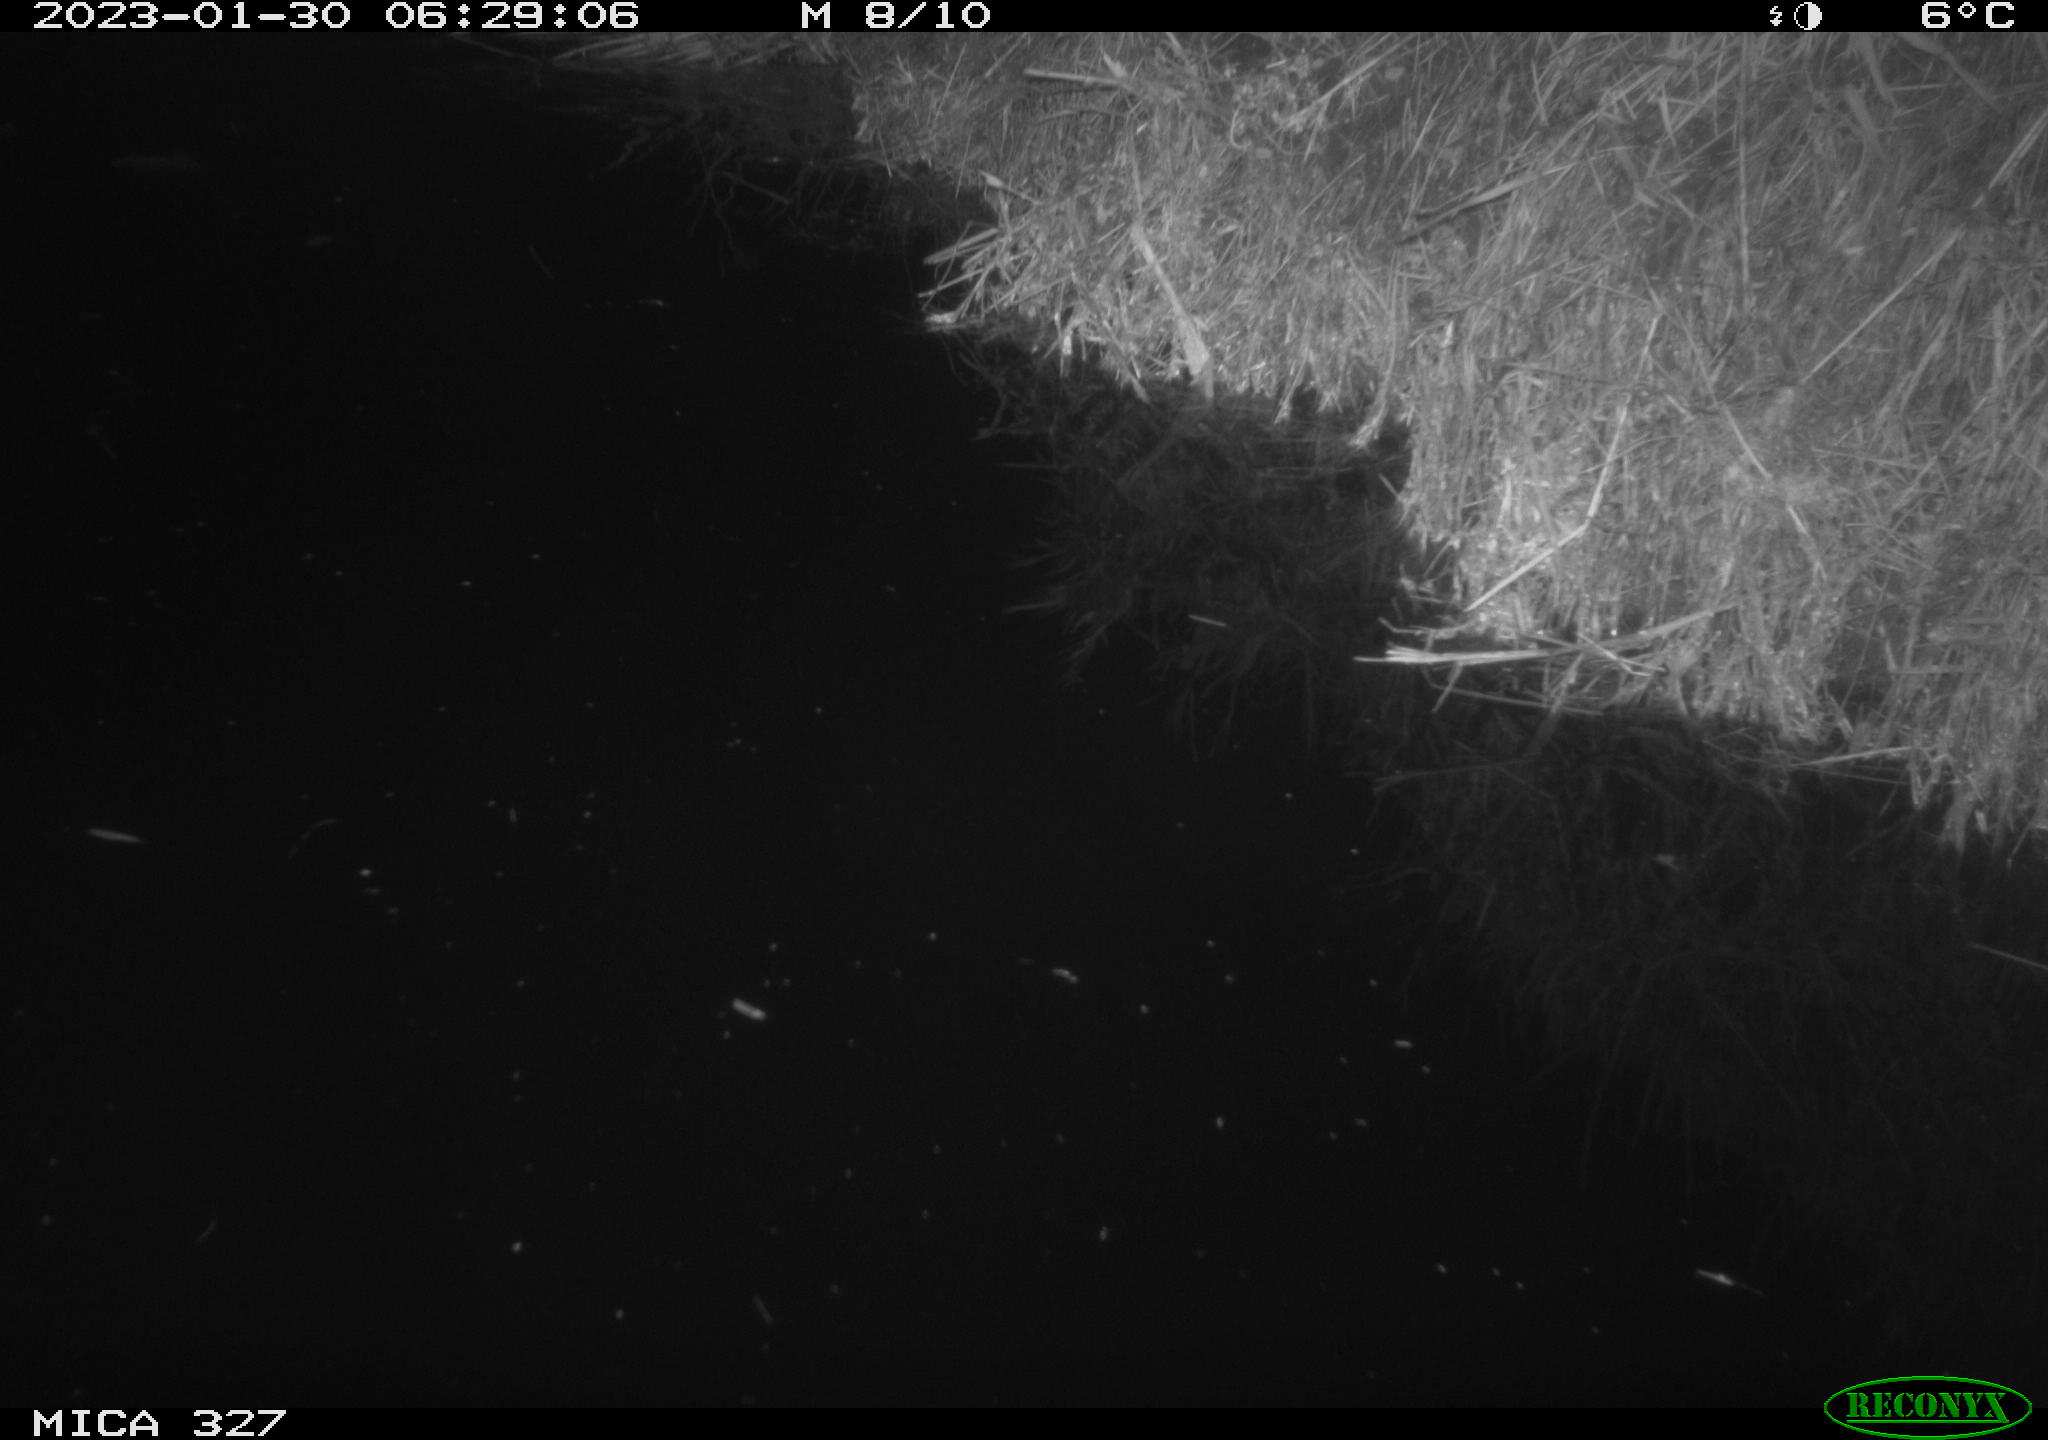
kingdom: Animalia
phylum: Chordata
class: Mammalia
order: Rodentia
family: Cricetidae
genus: Ondatra
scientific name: Ondatra zibethicus
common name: Muskrat
